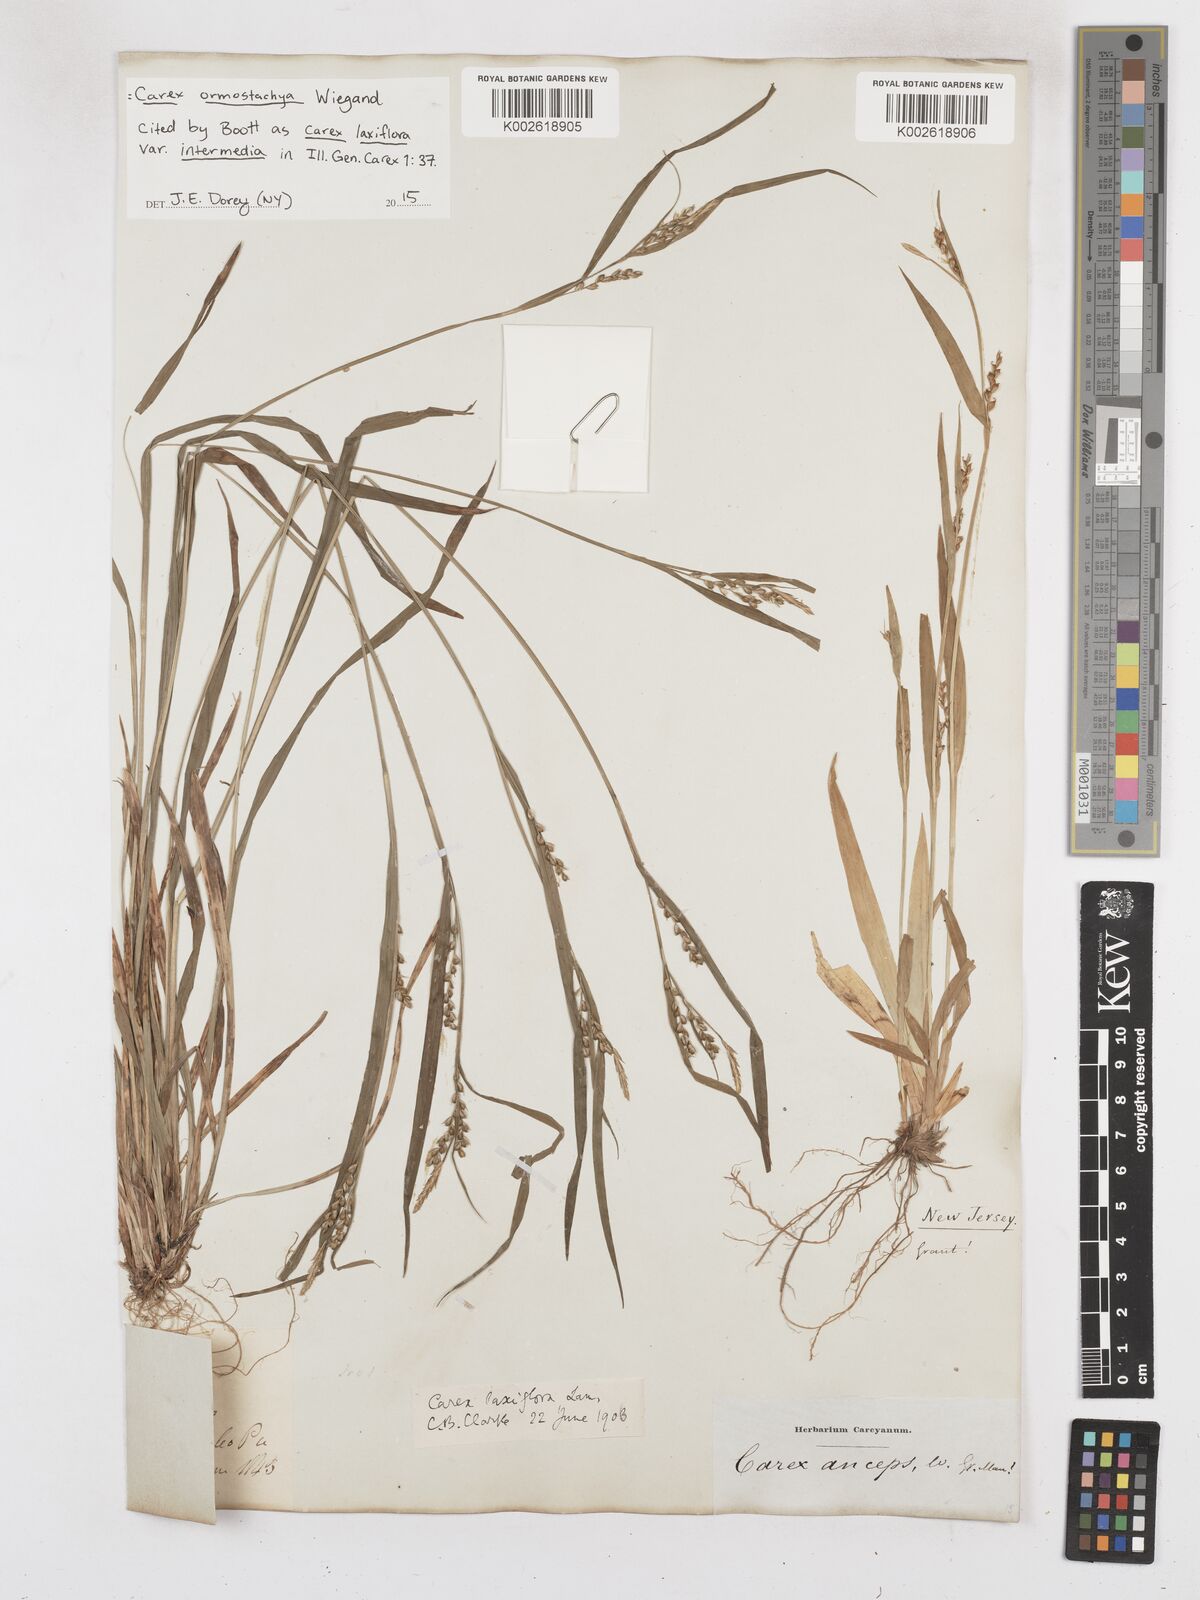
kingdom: Plantae
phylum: Tracheophyta
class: Liliopsida
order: Poales
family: Cyperaceae
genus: Carex
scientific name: Carex ormostachya
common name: Necklace spike sedge
